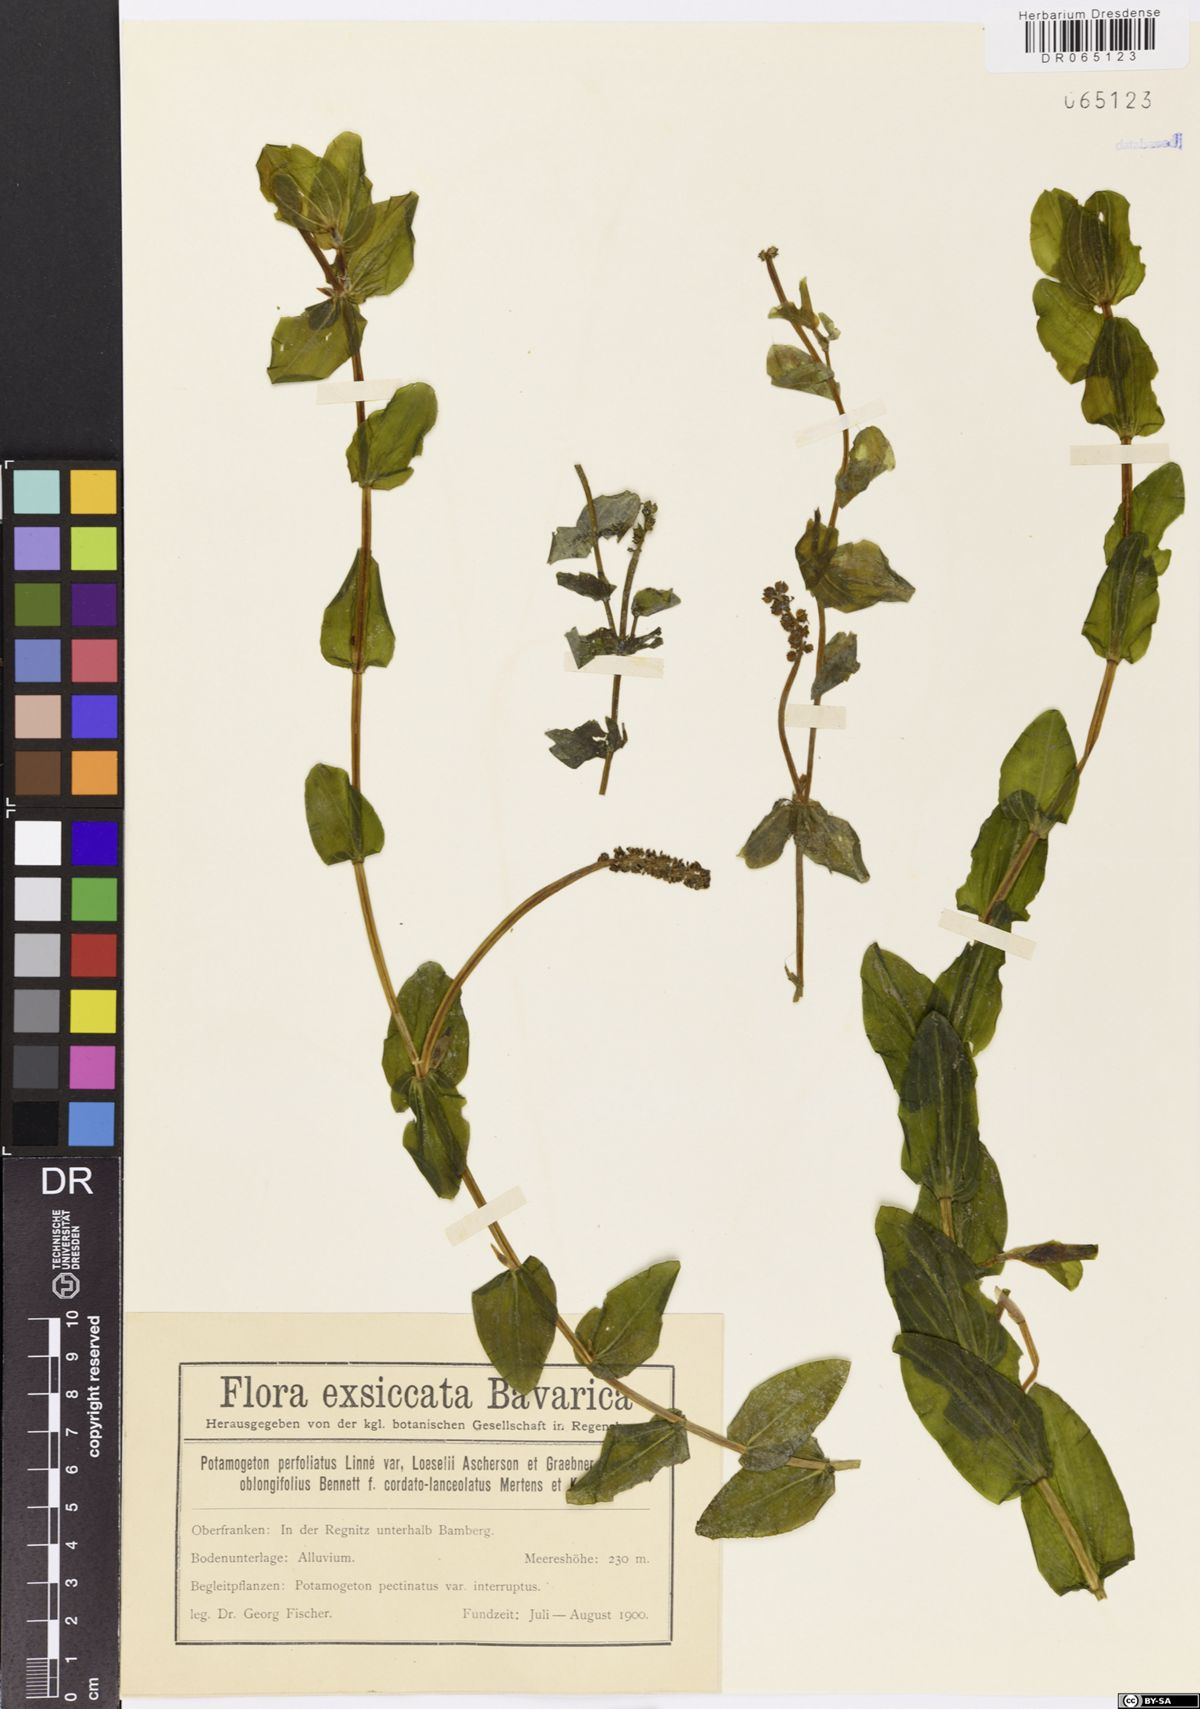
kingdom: Plantae
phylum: Tracheophyta
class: Liliopsida
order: Alismatales
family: Potamogetonaceae
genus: Potamogeton
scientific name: Potamogeton perfoliatus
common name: Perfoliate pondweed
